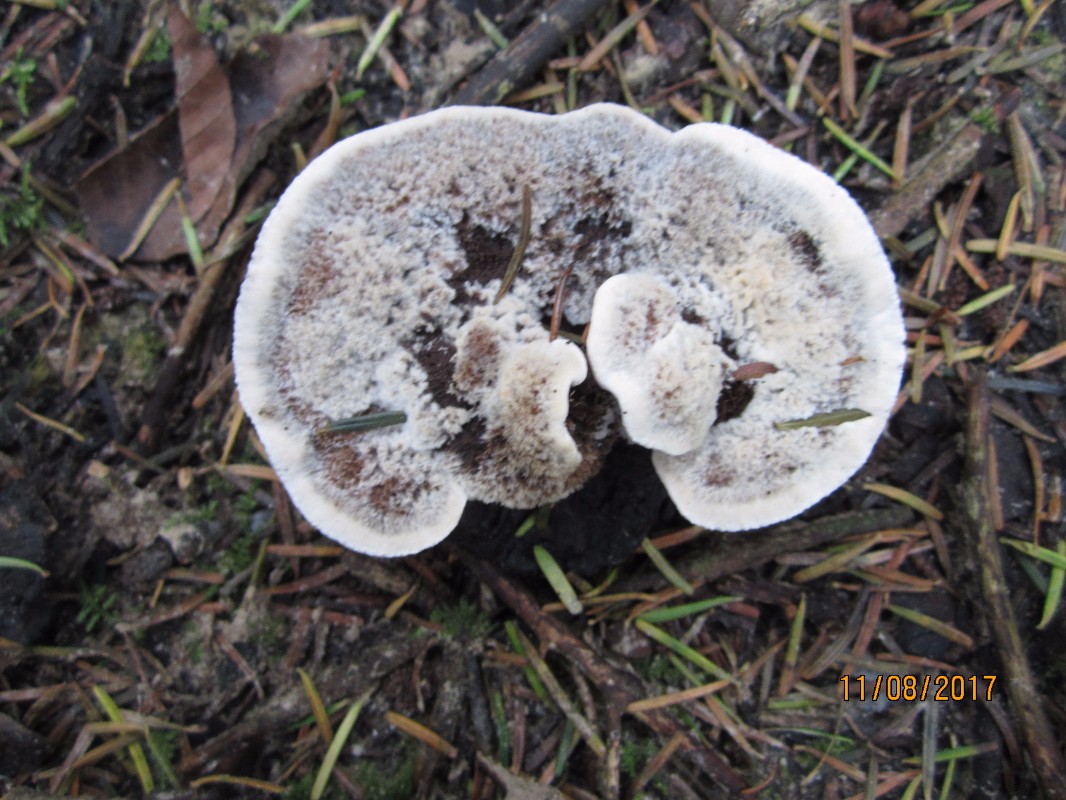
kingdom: Fungi
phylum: Basidiomycota
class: Agaricomycetes
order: Thelephorales
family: Bankeraceae
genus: Hydnellum
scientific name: Hydnellum caeruleum
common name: blålig korkpigsvamp
